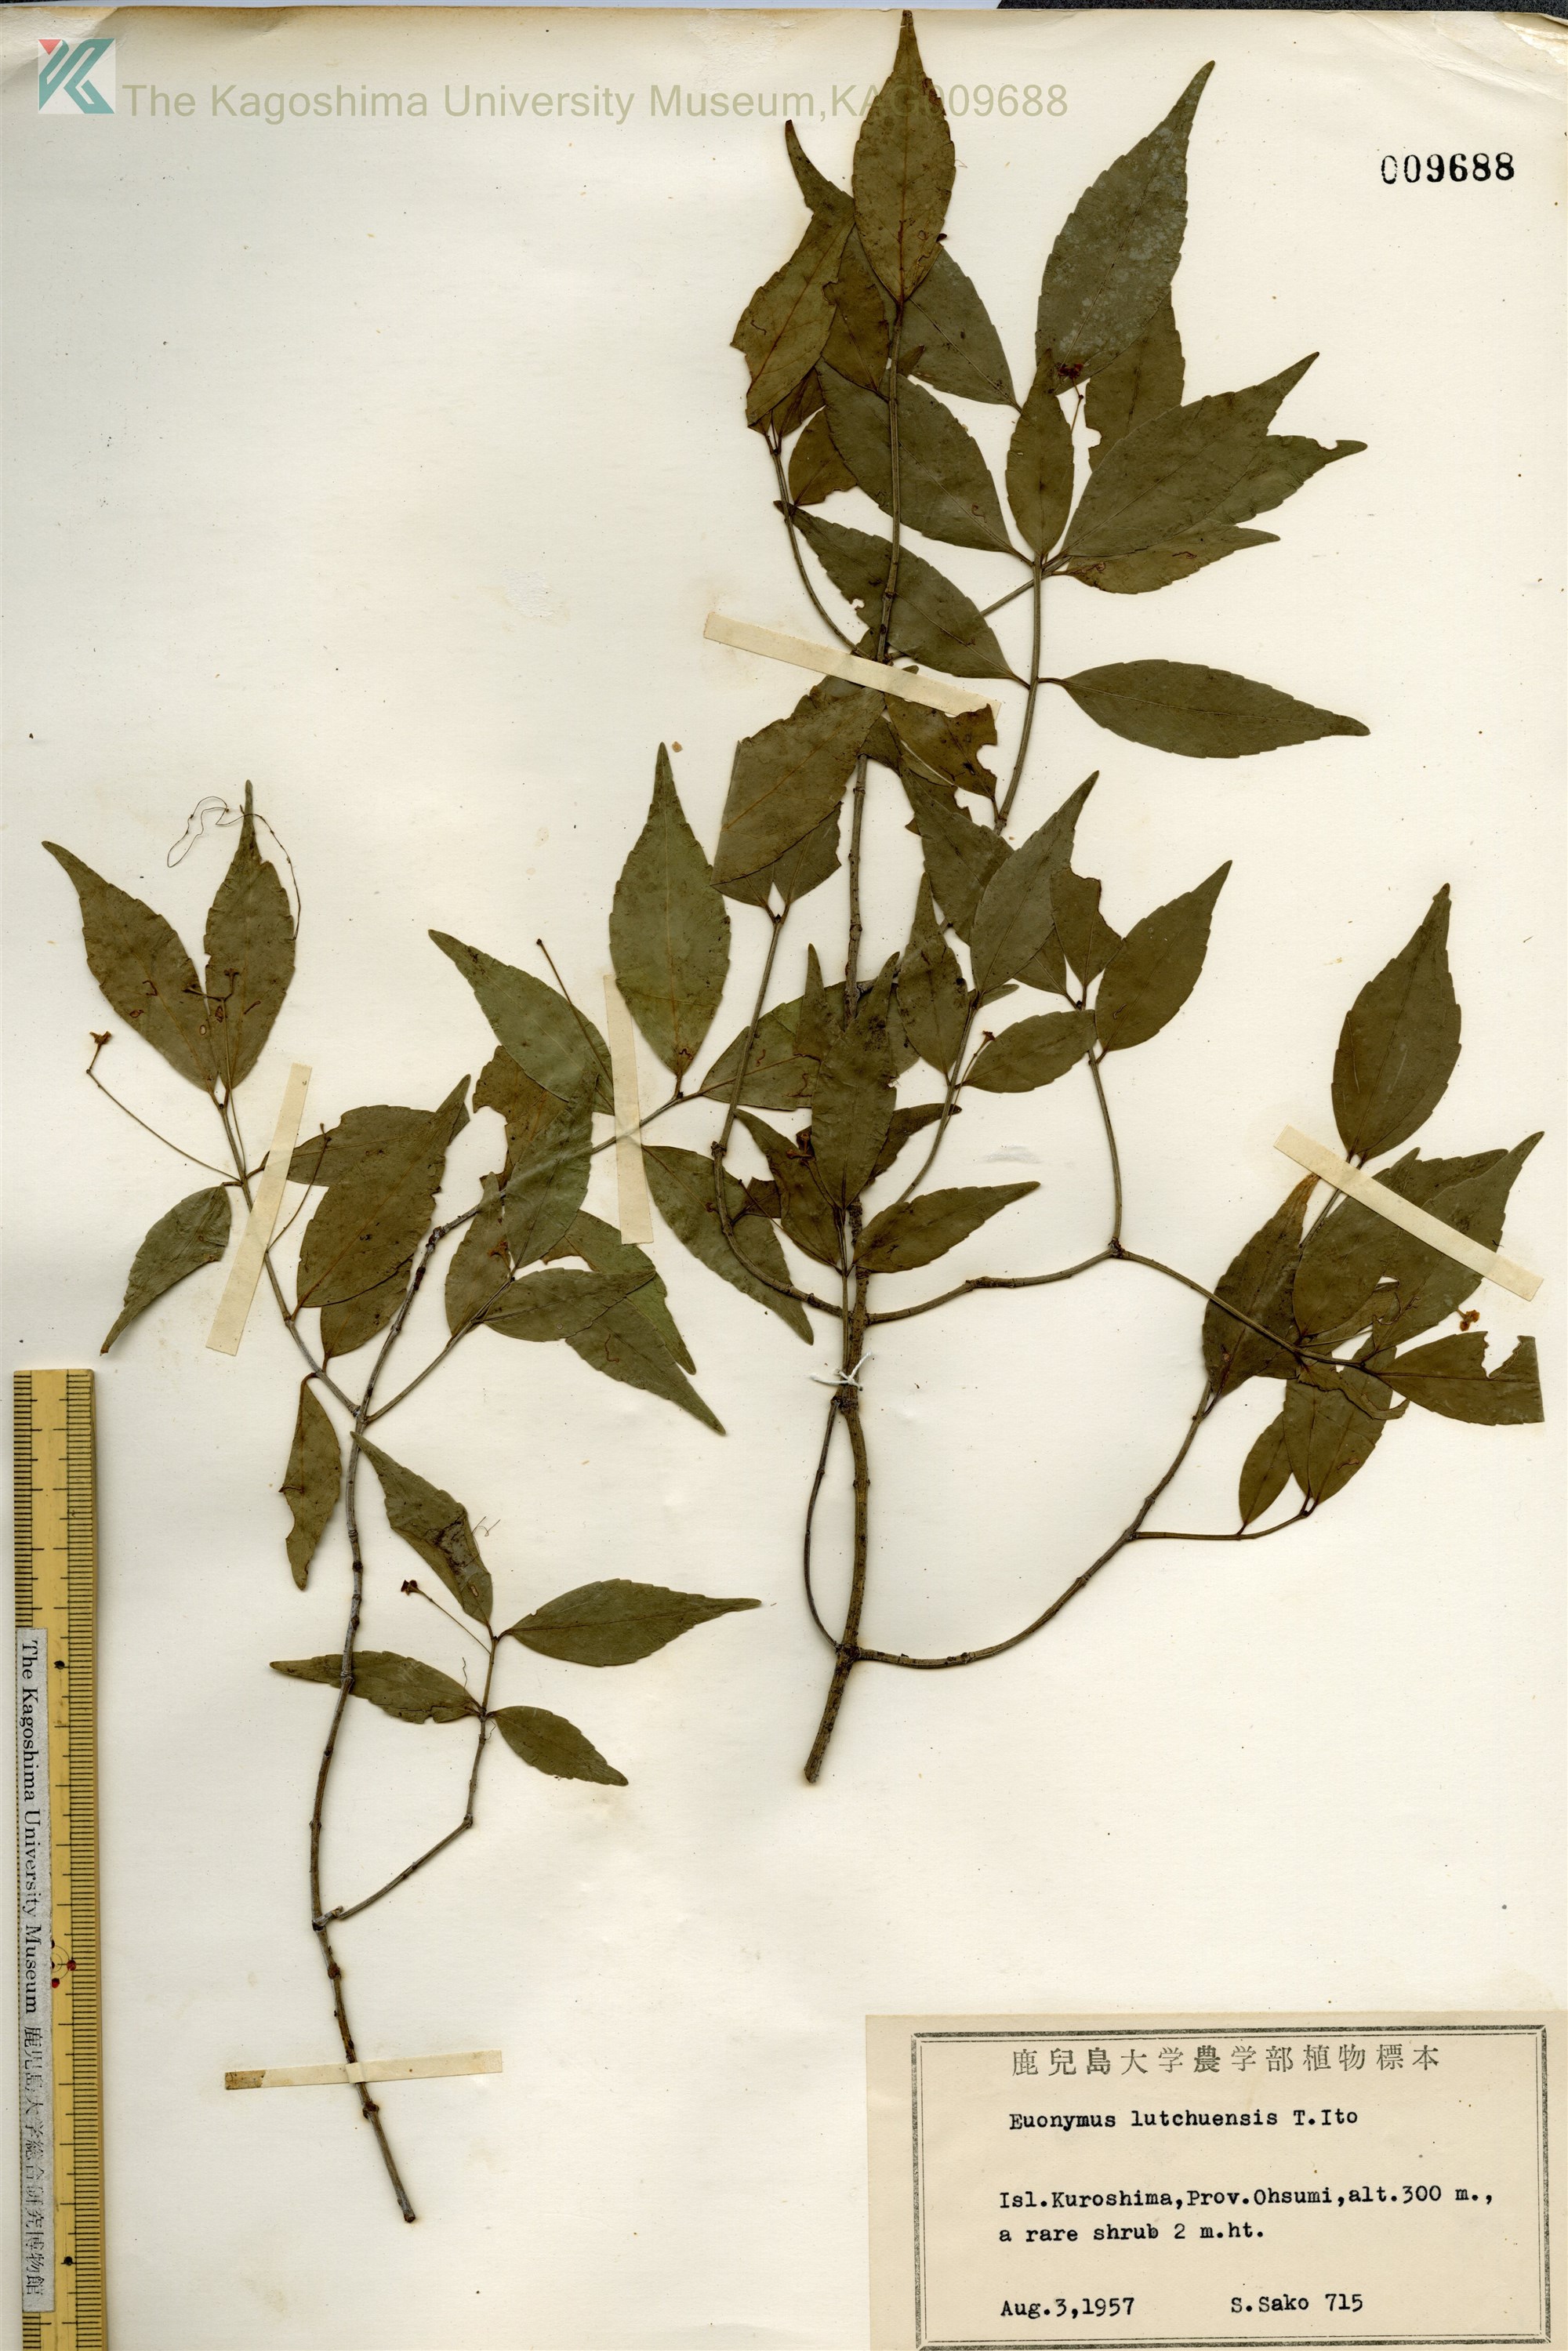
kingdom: Plantae
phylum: Tracheophyta
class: Magnoliopsida
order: Celastrales
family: Celastraceae
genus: Euonymus
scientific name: Euonymus lutchuensis
